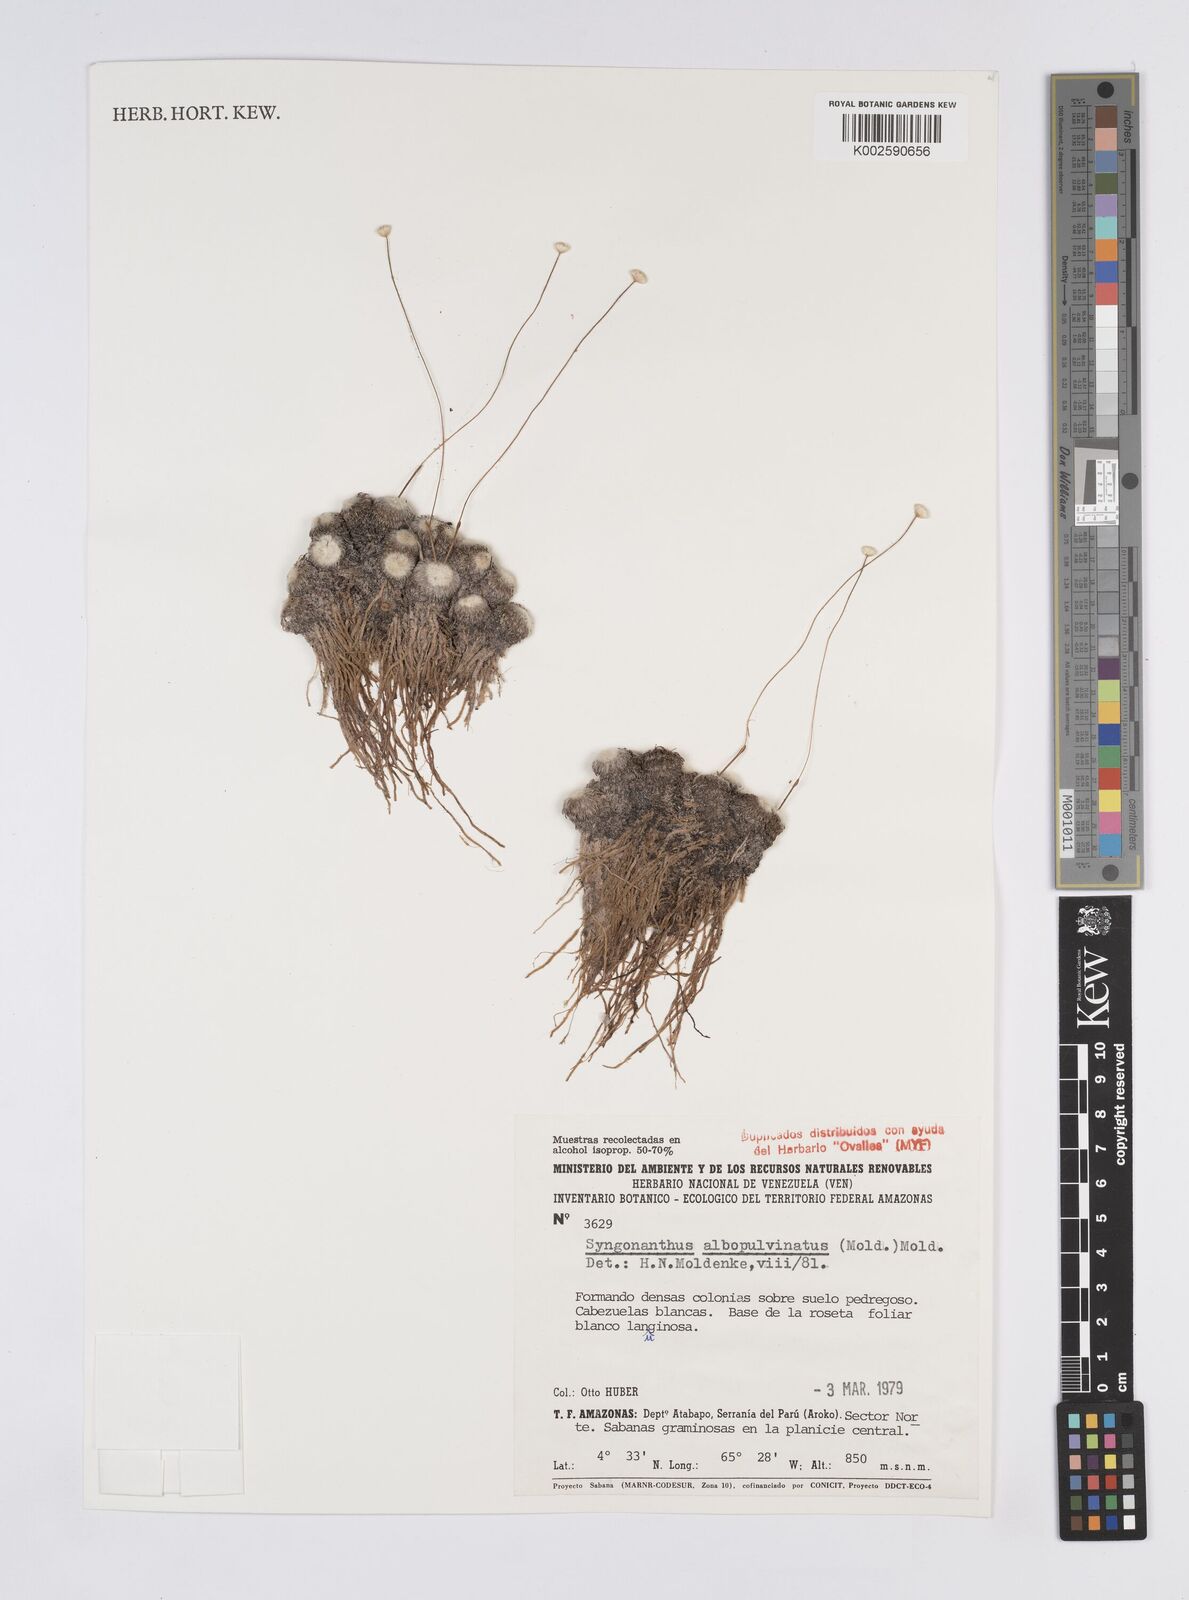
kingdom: Plantae
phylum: Tracheophyta
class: Liliopsida
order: Poales
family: Eriocaulaceae
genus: Syngonanthus
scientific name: Syngonanthus albopulvinatus
